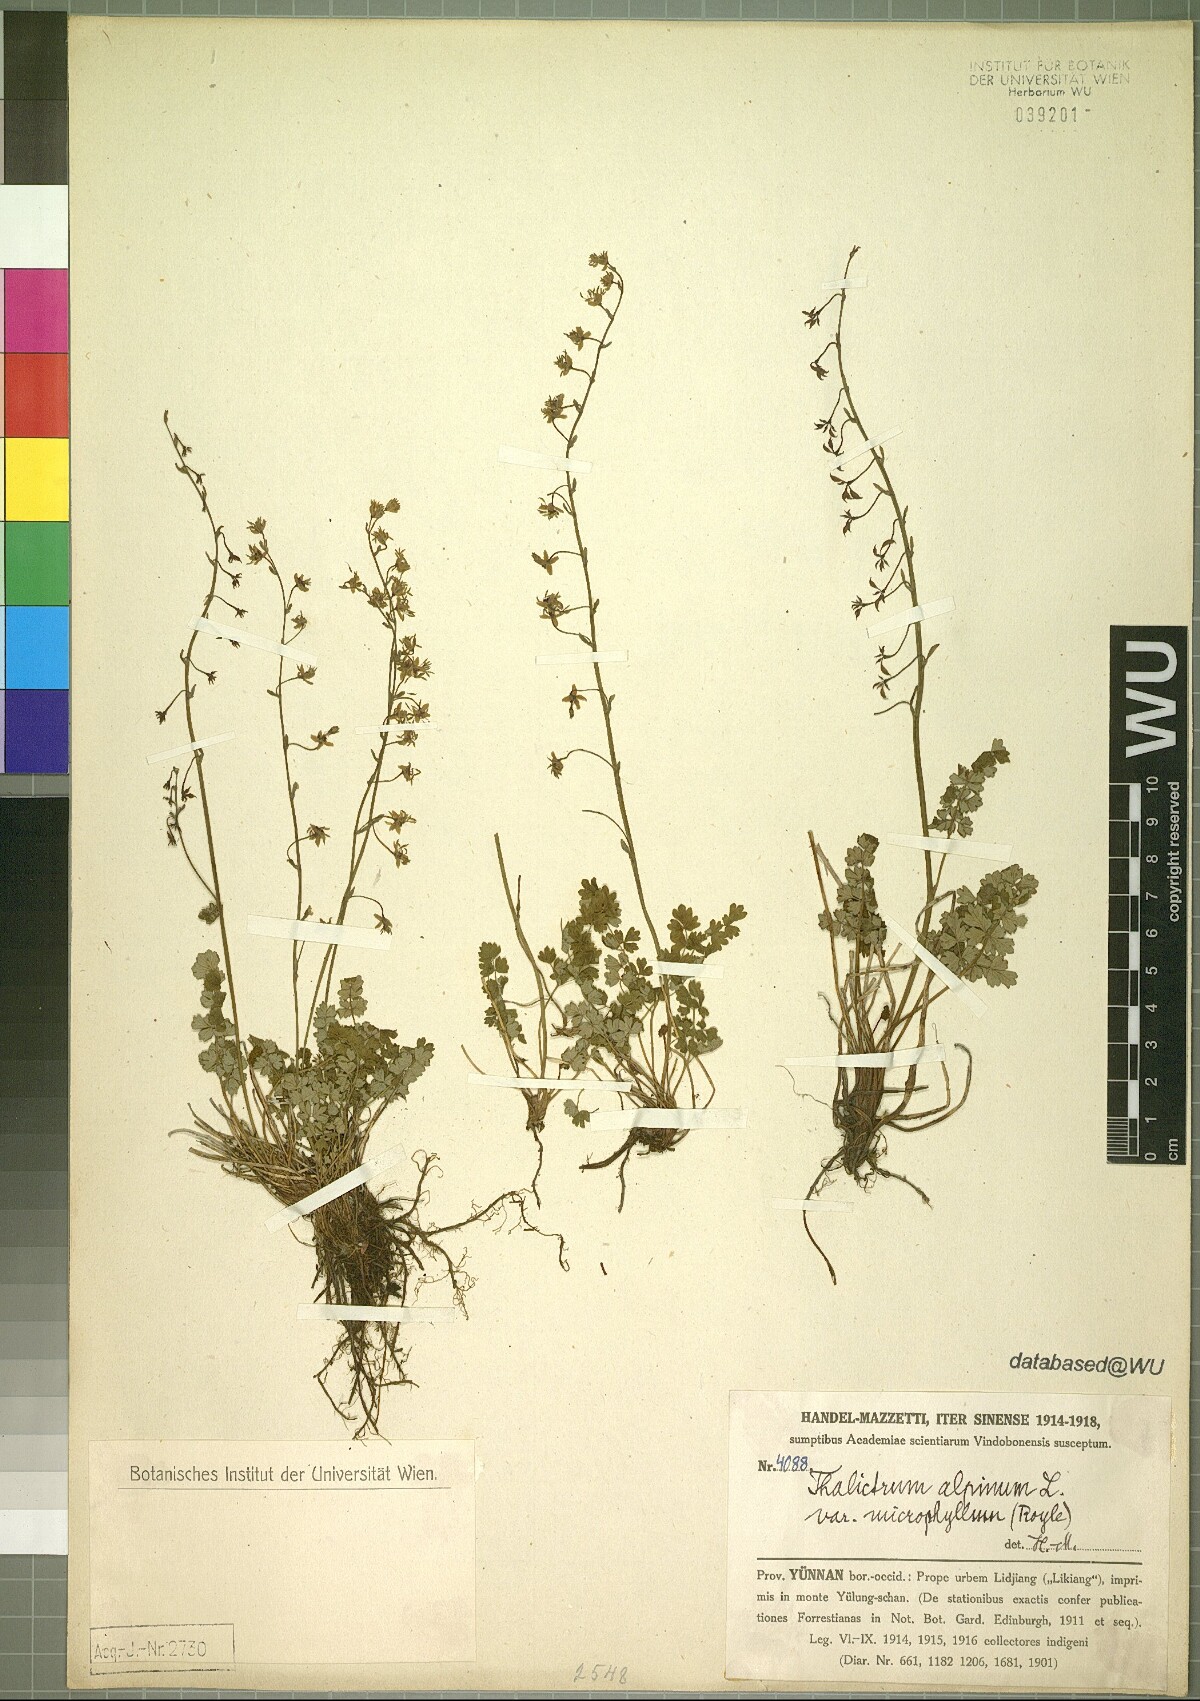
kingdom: Plantae
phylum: Tracheophyta
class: Magnoliopsida
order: Ranunculales
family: Ranunculaceae
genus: Thalictrum
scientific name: Thalictrum alpinum
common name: Alpine meadow-rue
